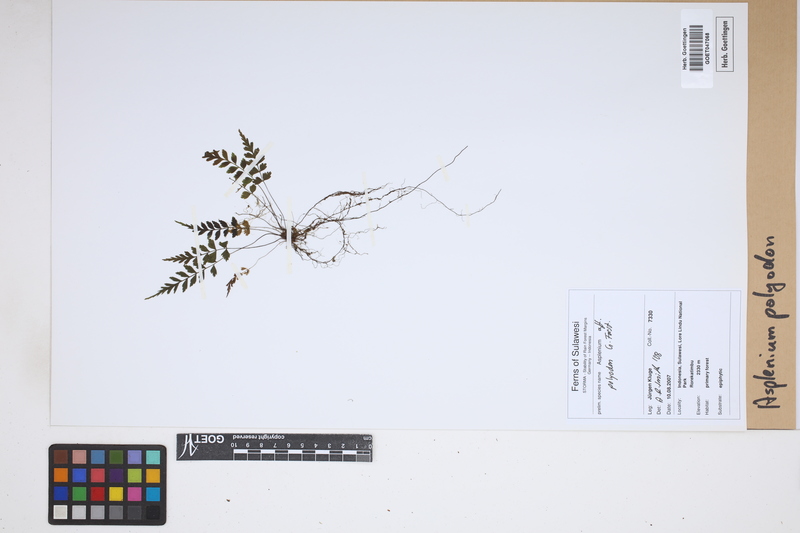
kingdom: Plantae
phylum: Tracheophyta
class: Polypodiopsida
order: Polypodiales
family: Aspleniaceae
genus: Asplenium
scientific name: Asplenium polyodon
